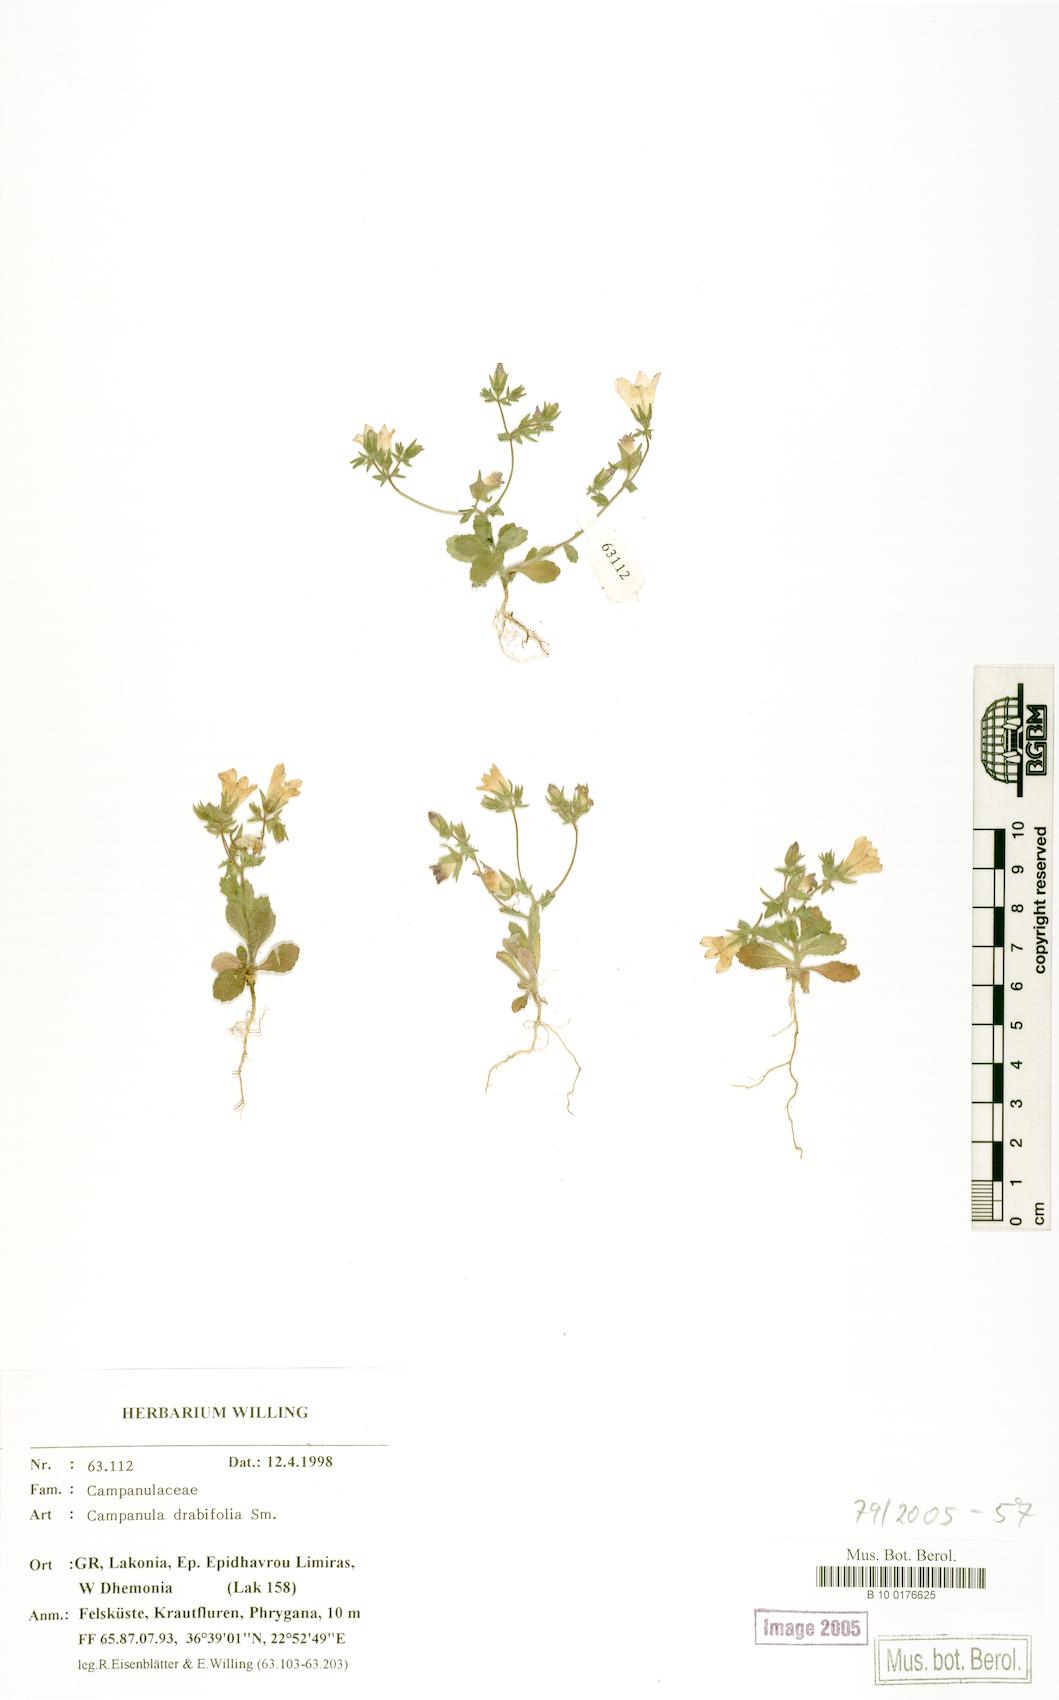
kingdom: Plantae
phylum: Tracheophyta
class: Magnoliopsida
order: Asterales
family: Campanulaceae
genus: Campanula
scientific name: Campanula drabifolia
